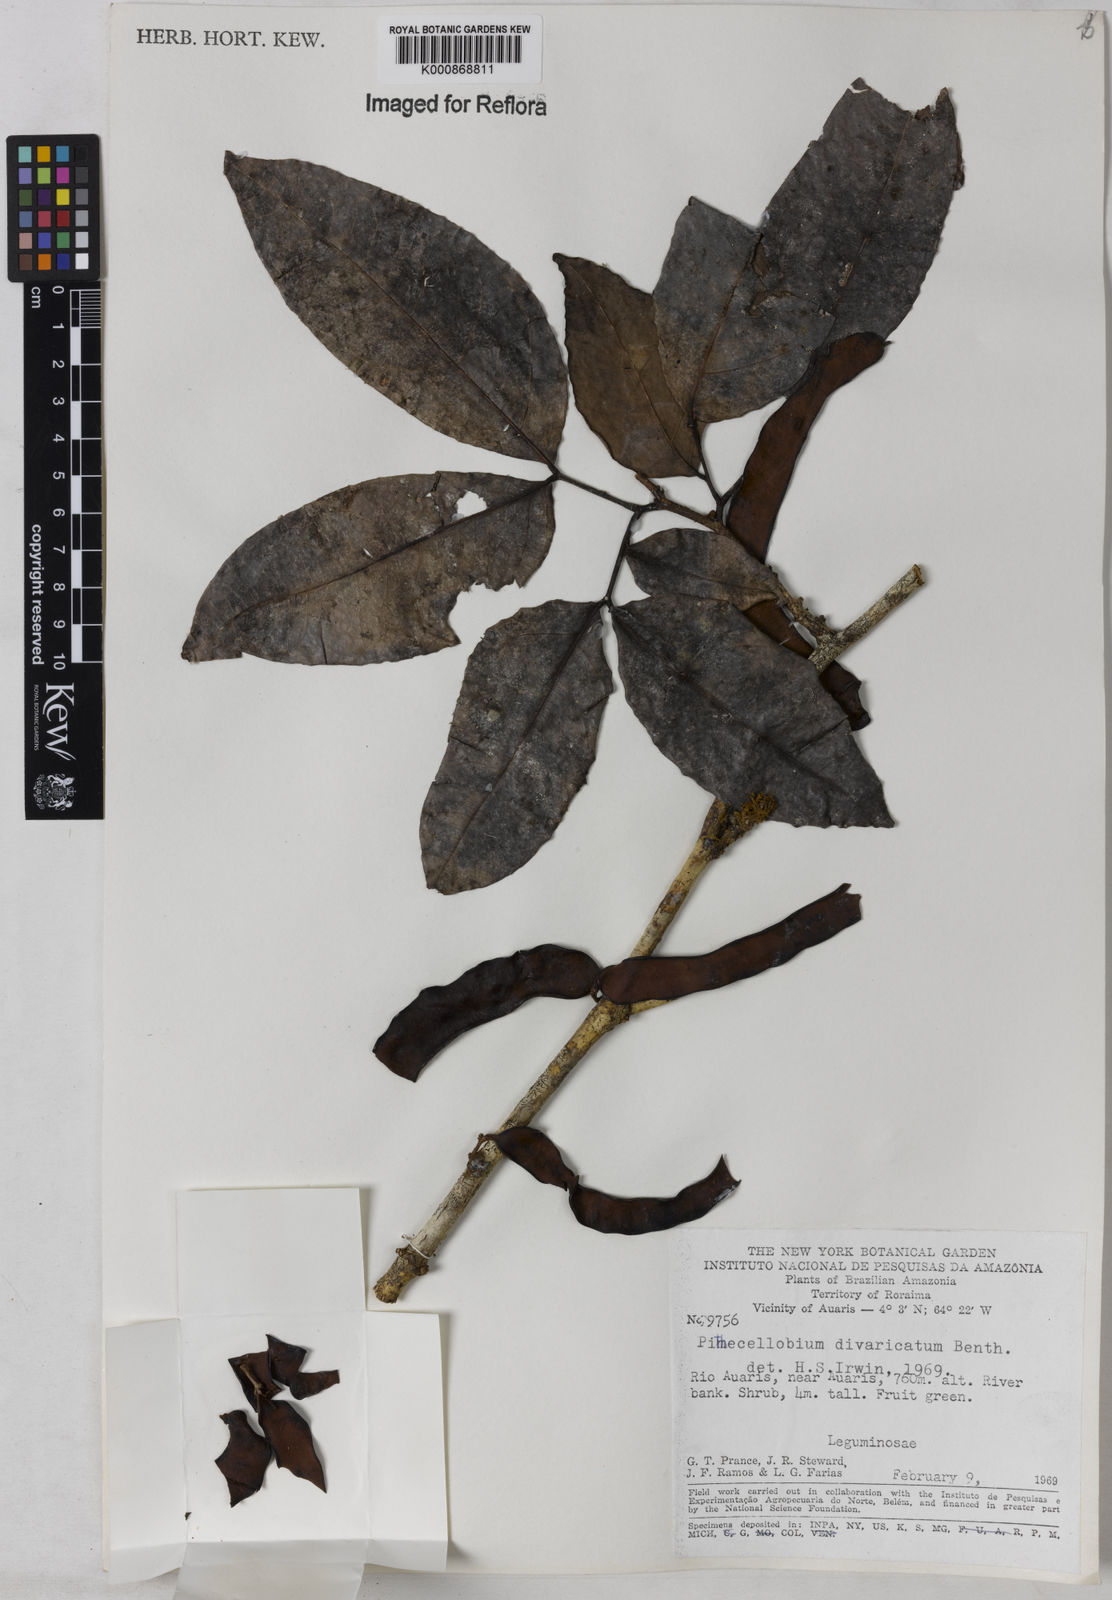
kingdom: Plantae
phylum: Tracheophyta
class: Magnoliopsida
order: Fabales
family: Fabaceae
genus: Zygia
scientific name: Zygia cataractae
